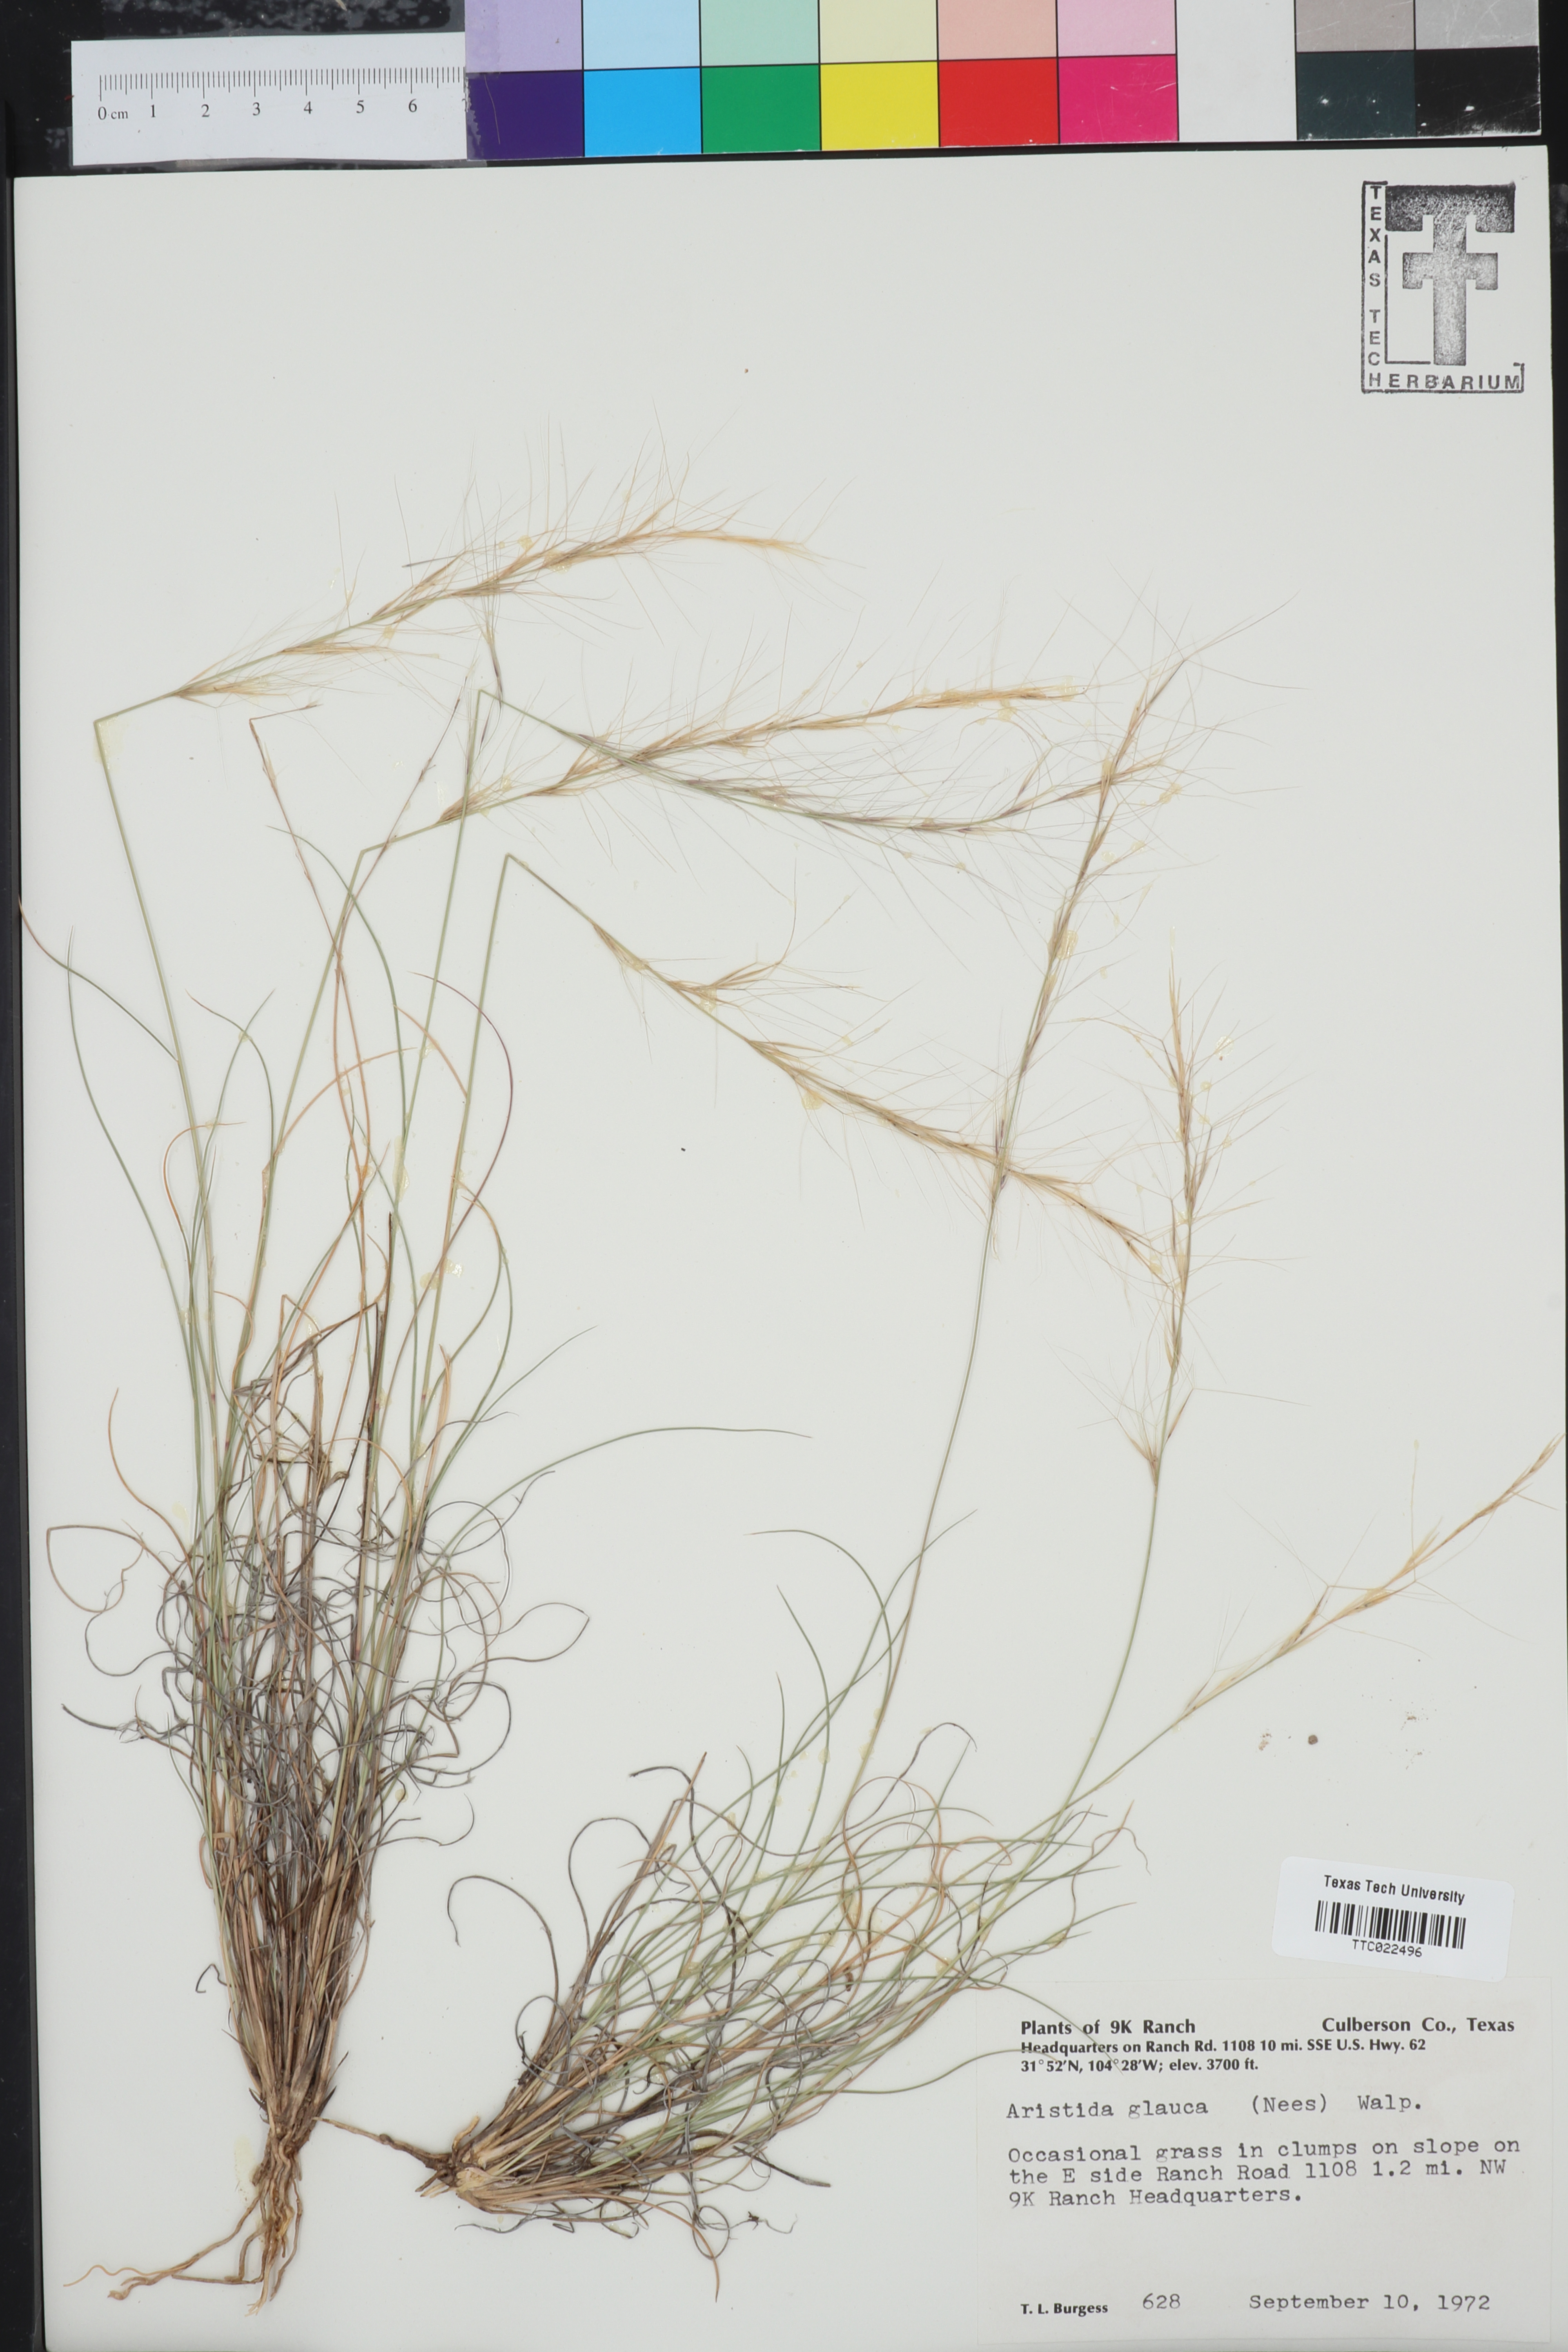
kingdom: Plantae
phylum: Tracheophyta
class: Liliopsida
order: Poales
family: Poaceae
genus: Aristida
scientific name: Aristida glauca
